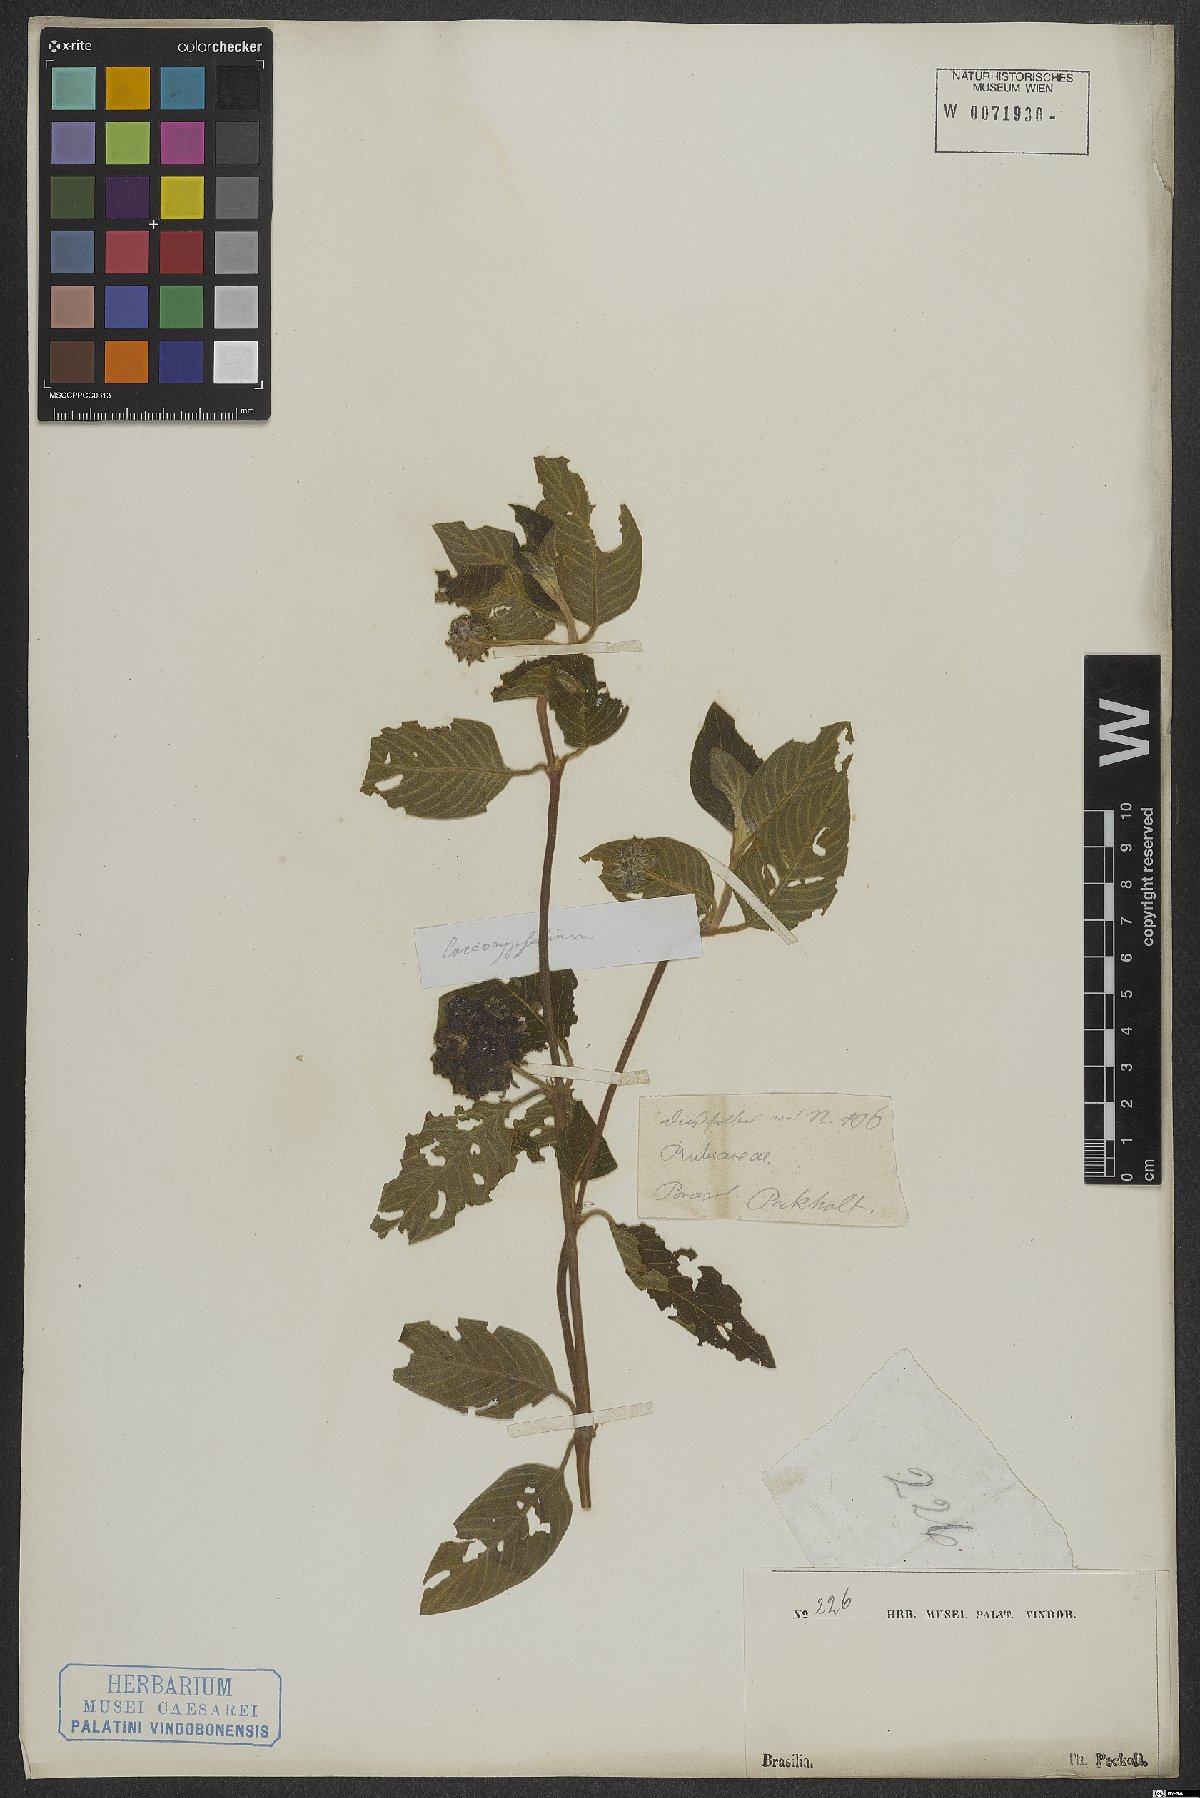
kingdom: Plantae
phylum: Tracheophyta
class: Magnoliopsida
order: Gentianales
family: Rubiaceae
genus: Coccocypselum
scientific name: Coccocypselum lanceolatum
